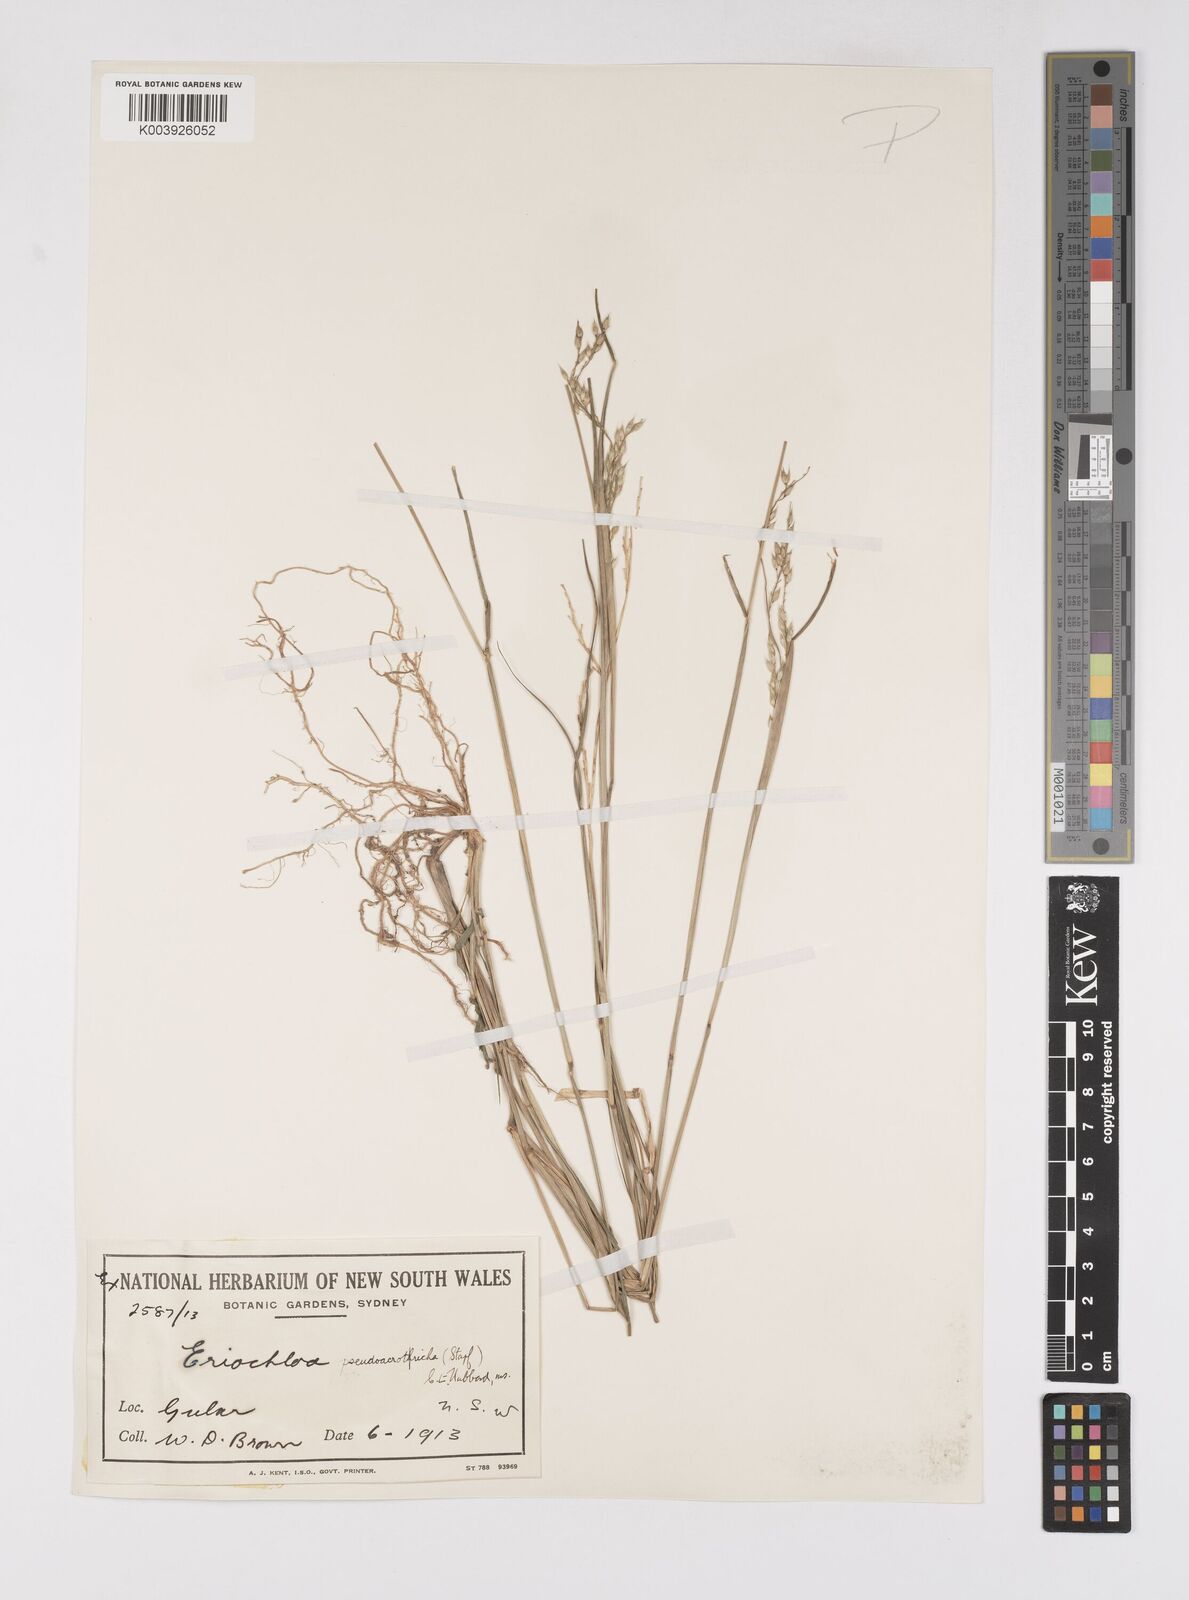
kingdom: Plantae
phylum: Tracheophyta
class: Liliopsida
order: Poales
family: Poaceae
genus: Eriochloa
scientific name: Eriochloa pseudoacrotricha
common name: Perennial cup-grass
